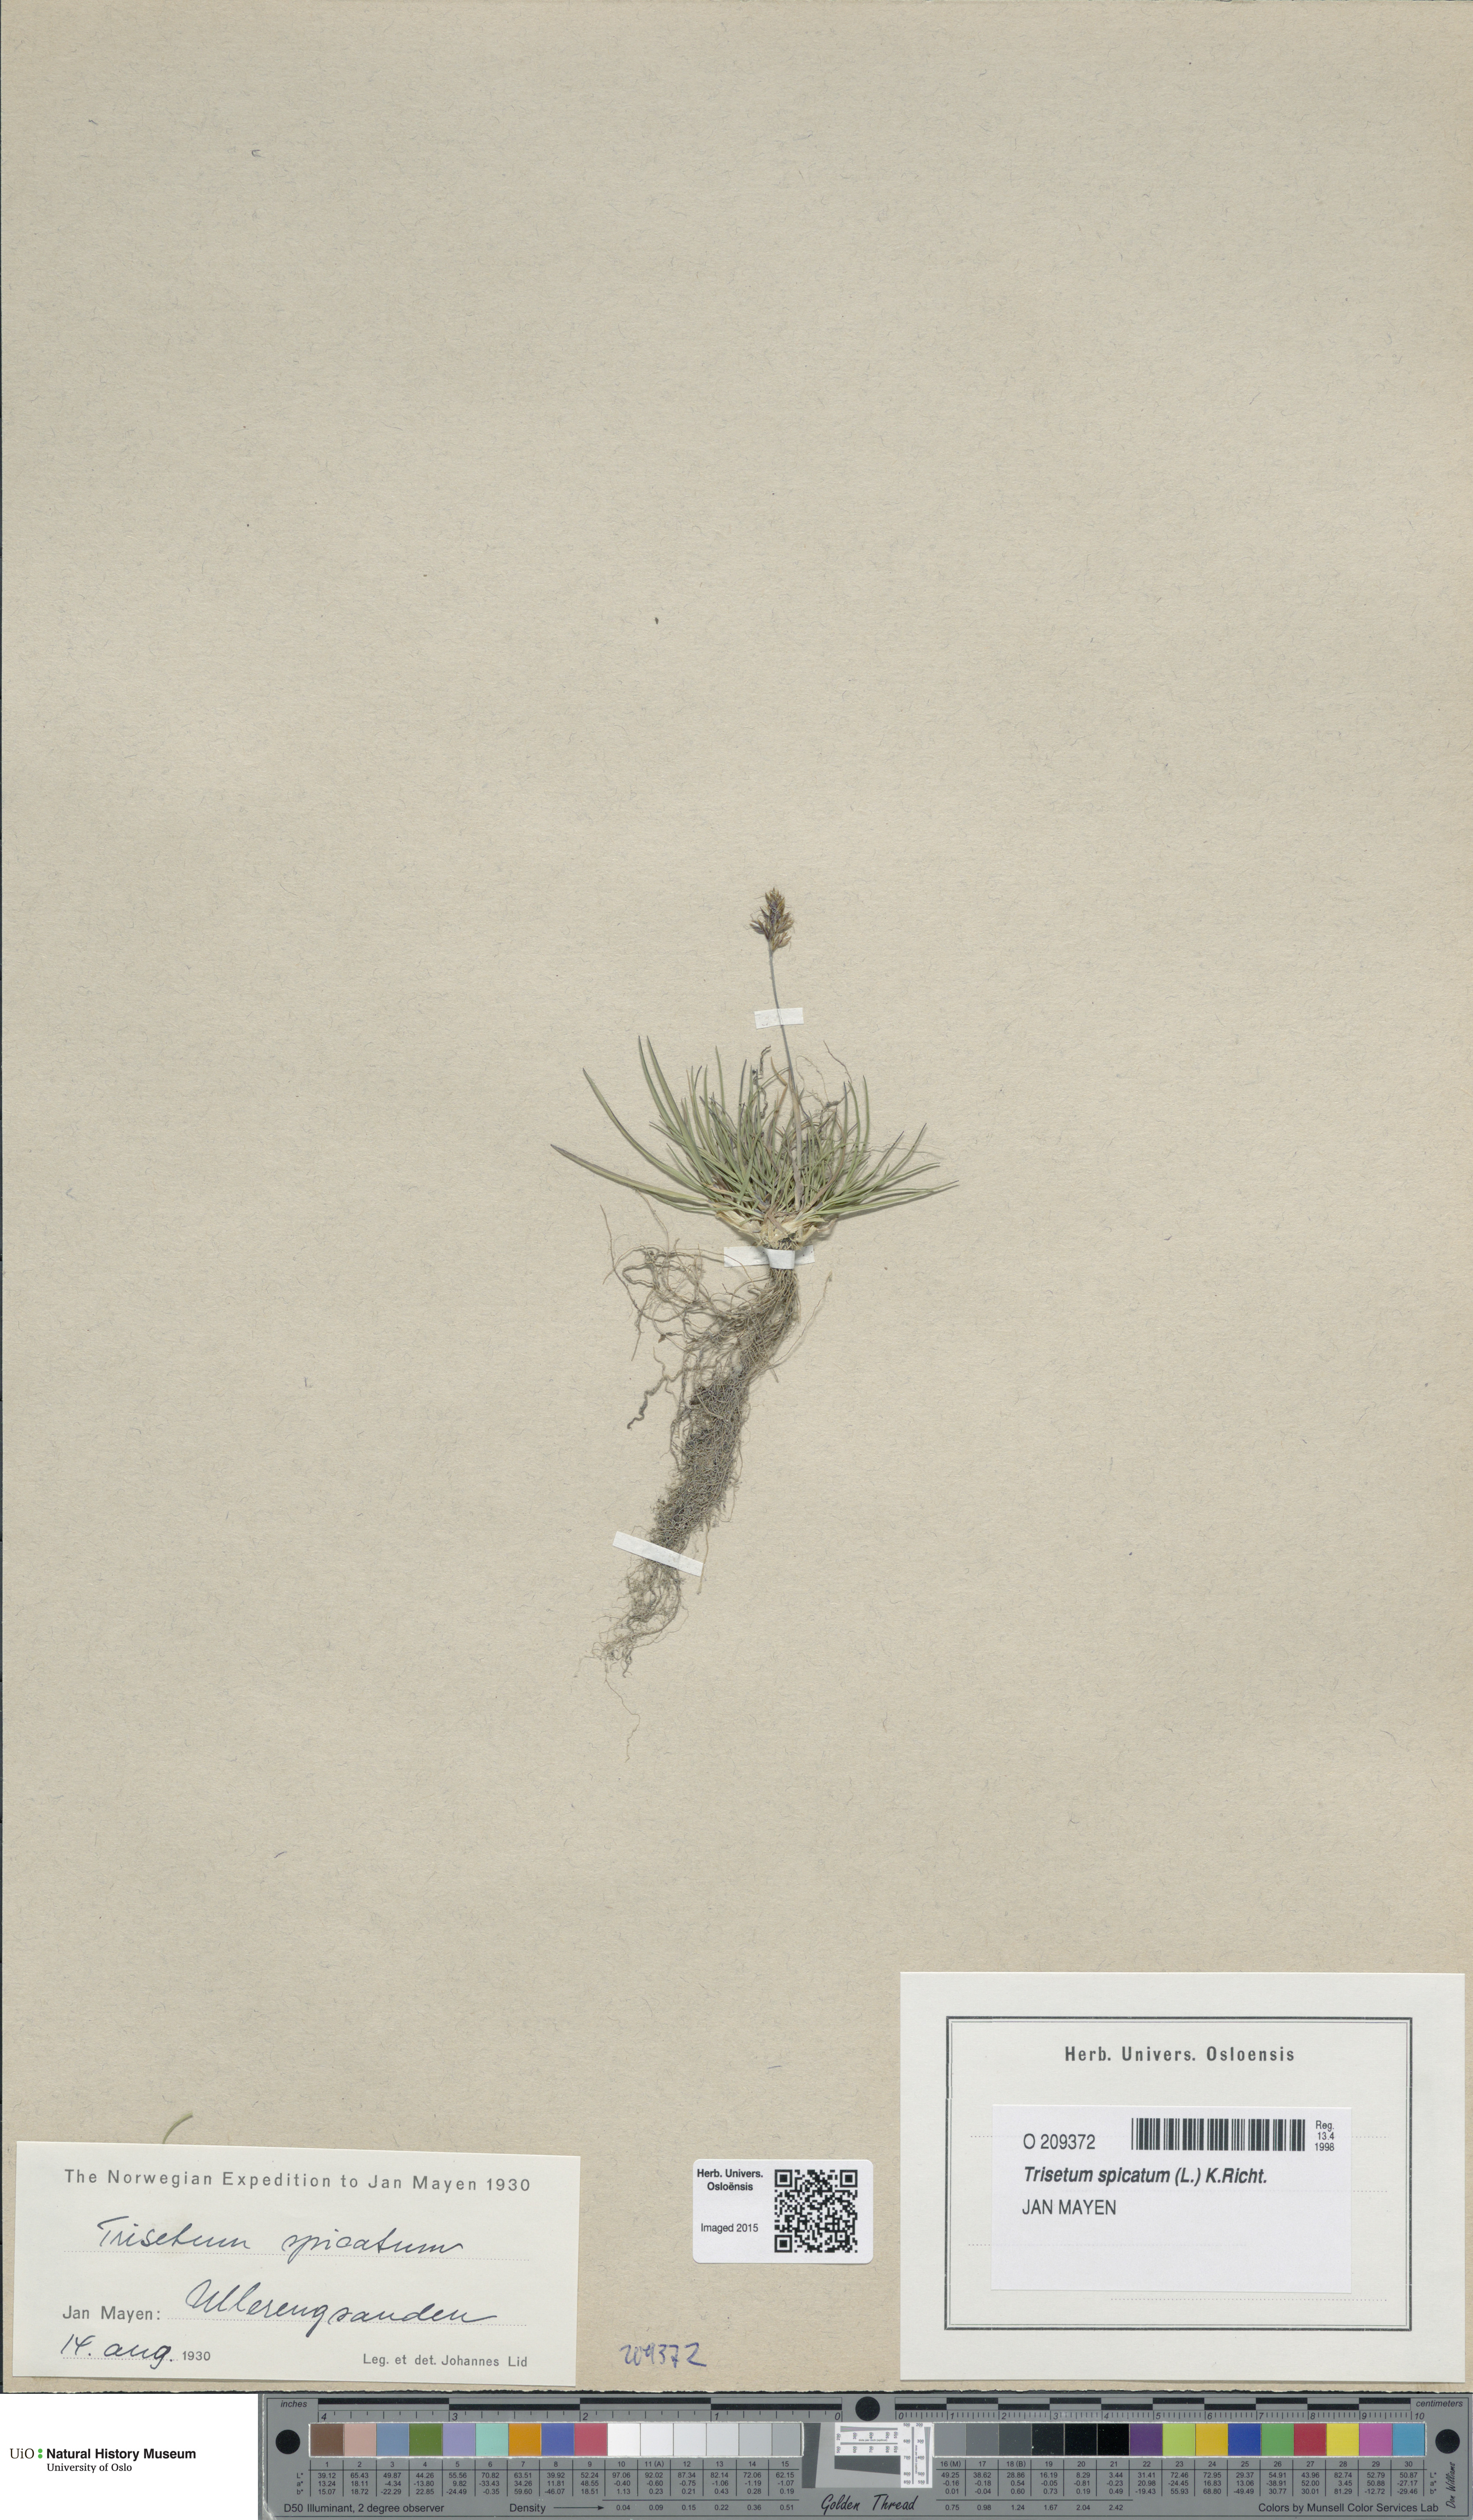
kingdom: Plantae
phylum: Tracheophyta
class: Liliopsida
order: Poales
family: Poaceae
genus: Koeleria
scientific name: Koeleria spicata
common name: Mountain trisetum
